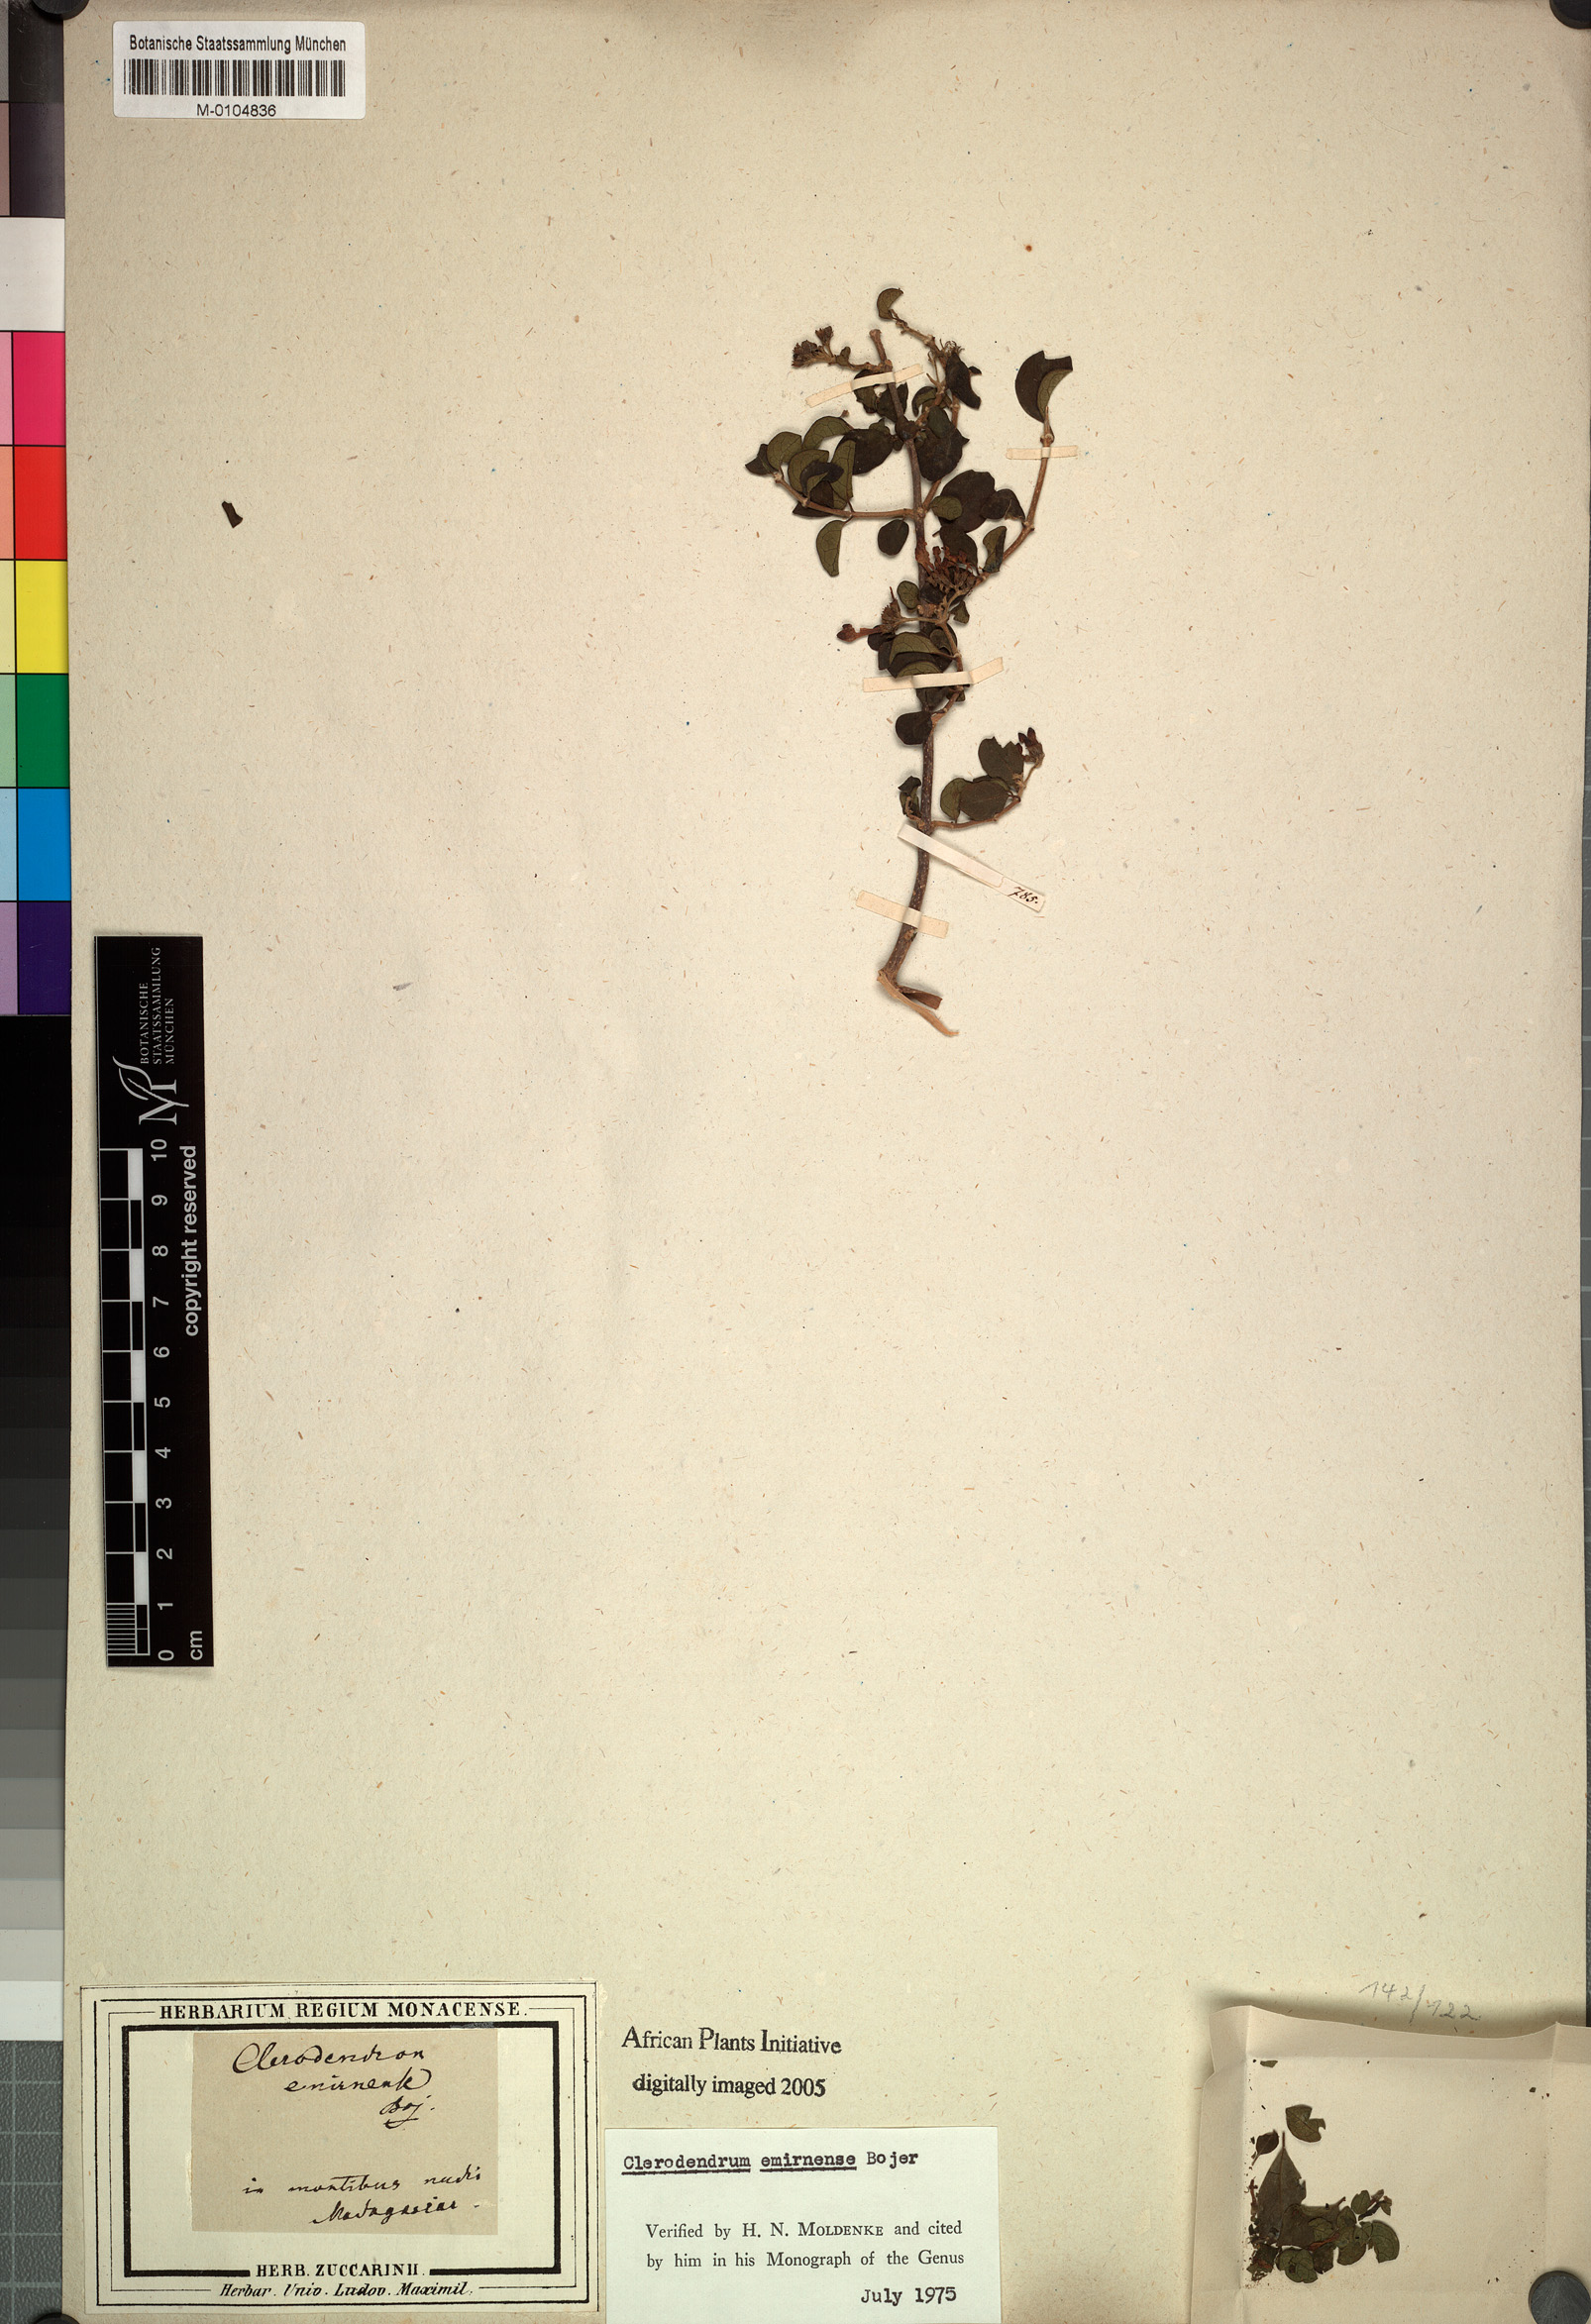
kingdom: Plantae
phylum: Tracheophyta
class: Magnoliopsida
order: Lamiales
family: Lamiaceae
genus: Clerodendrum
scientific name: Clerodendrum emirnense
